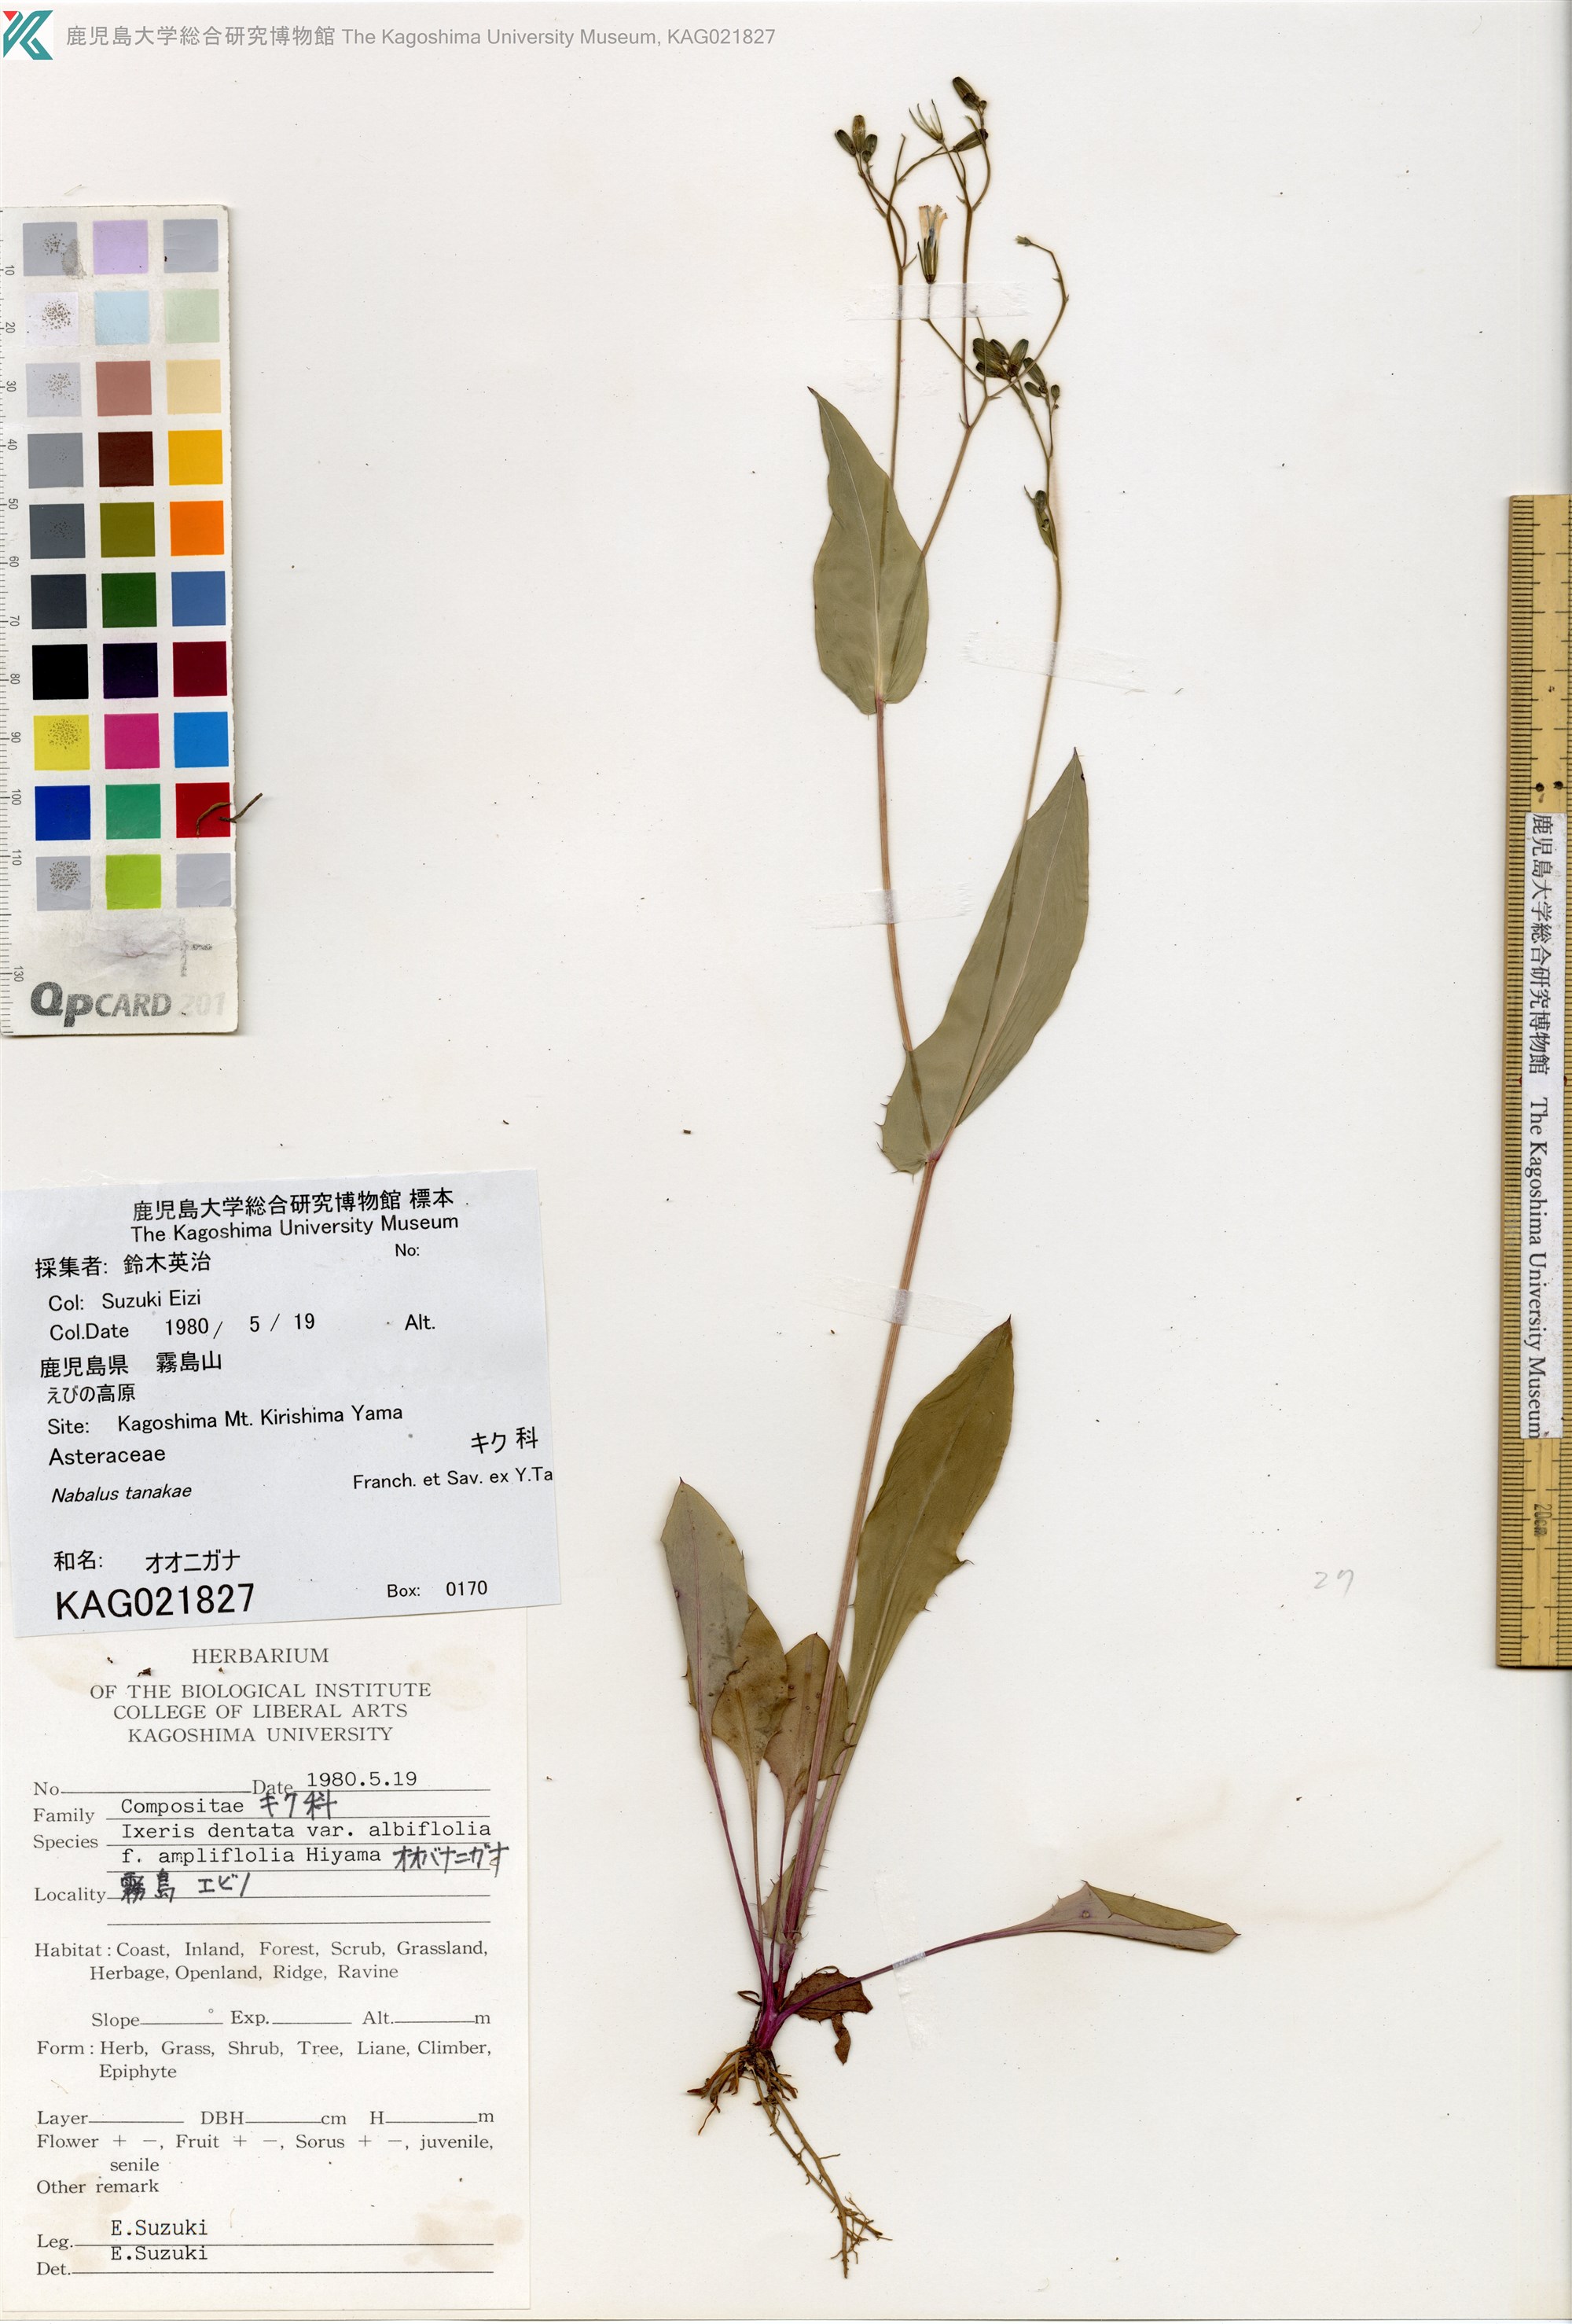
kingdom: Plantae
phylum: Tracheophyta
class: Magnoliopsida
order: Asterales
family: Asteraceae
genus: Nabalus
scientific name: Nabalus
